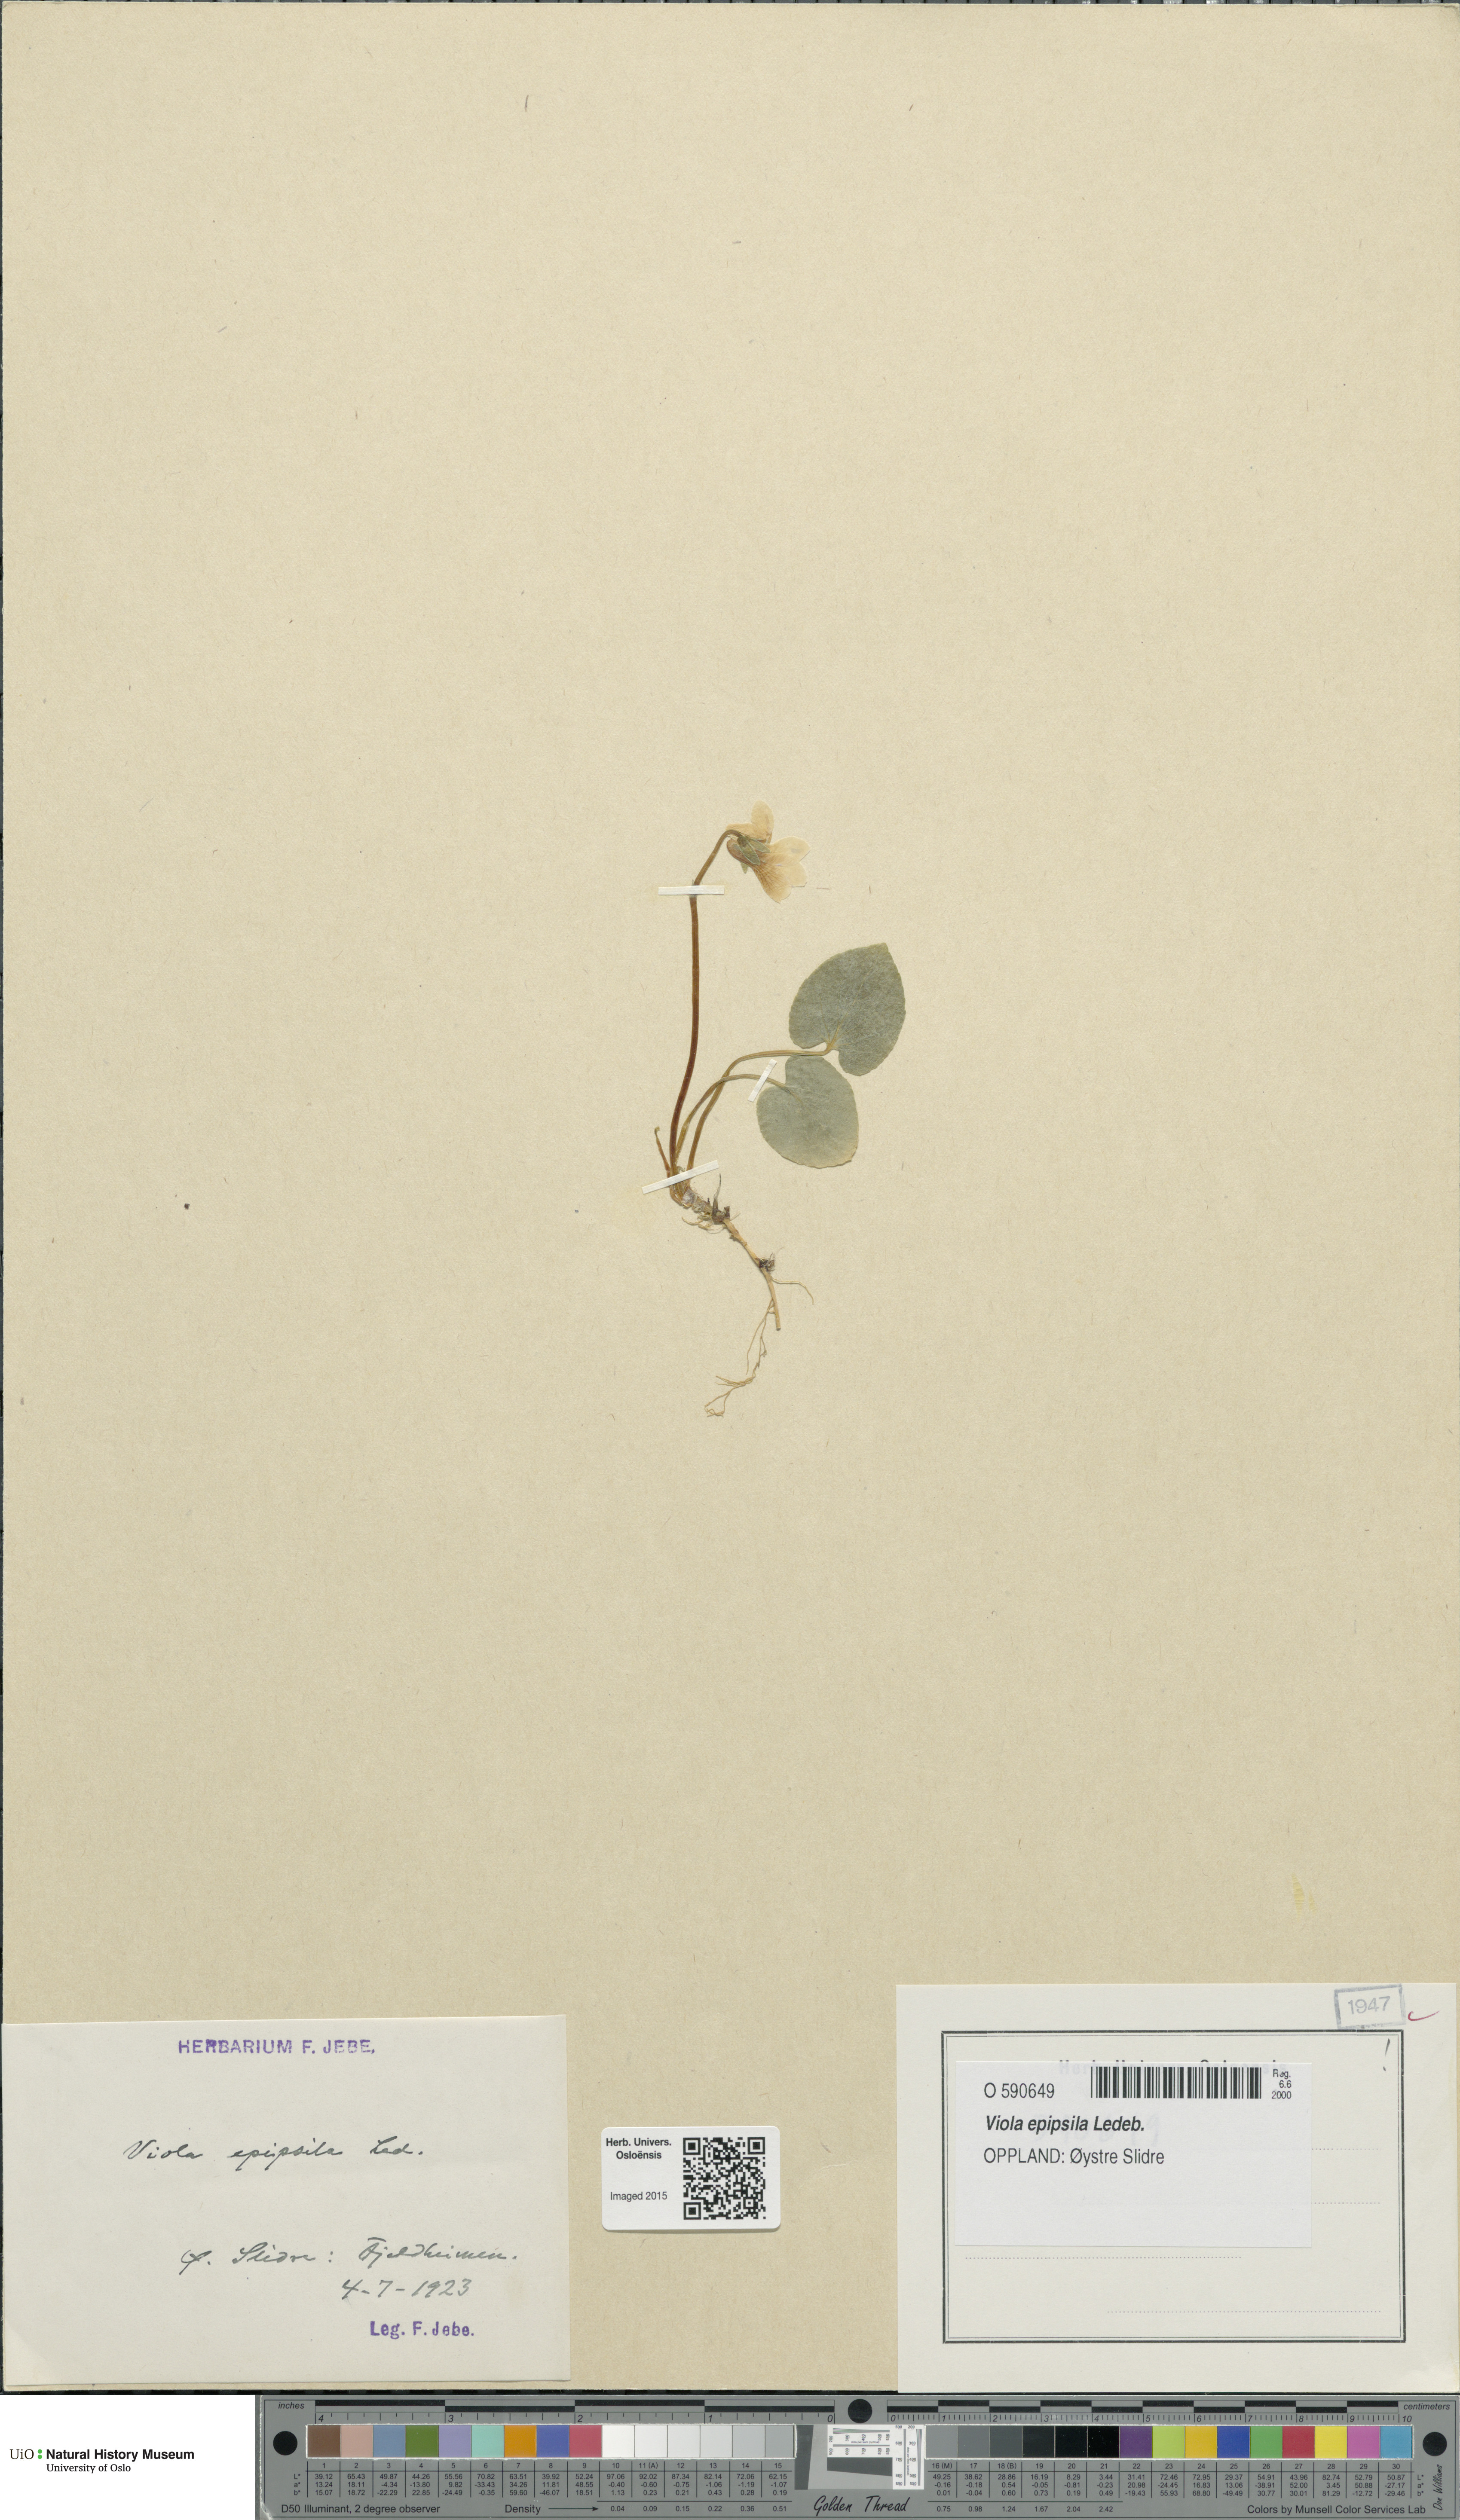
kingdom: Plantae
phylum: Tracheophyta
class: Magnoliopsida
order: Malpighiales
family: Violaceae
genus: Viola
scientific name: Viola epipsila
